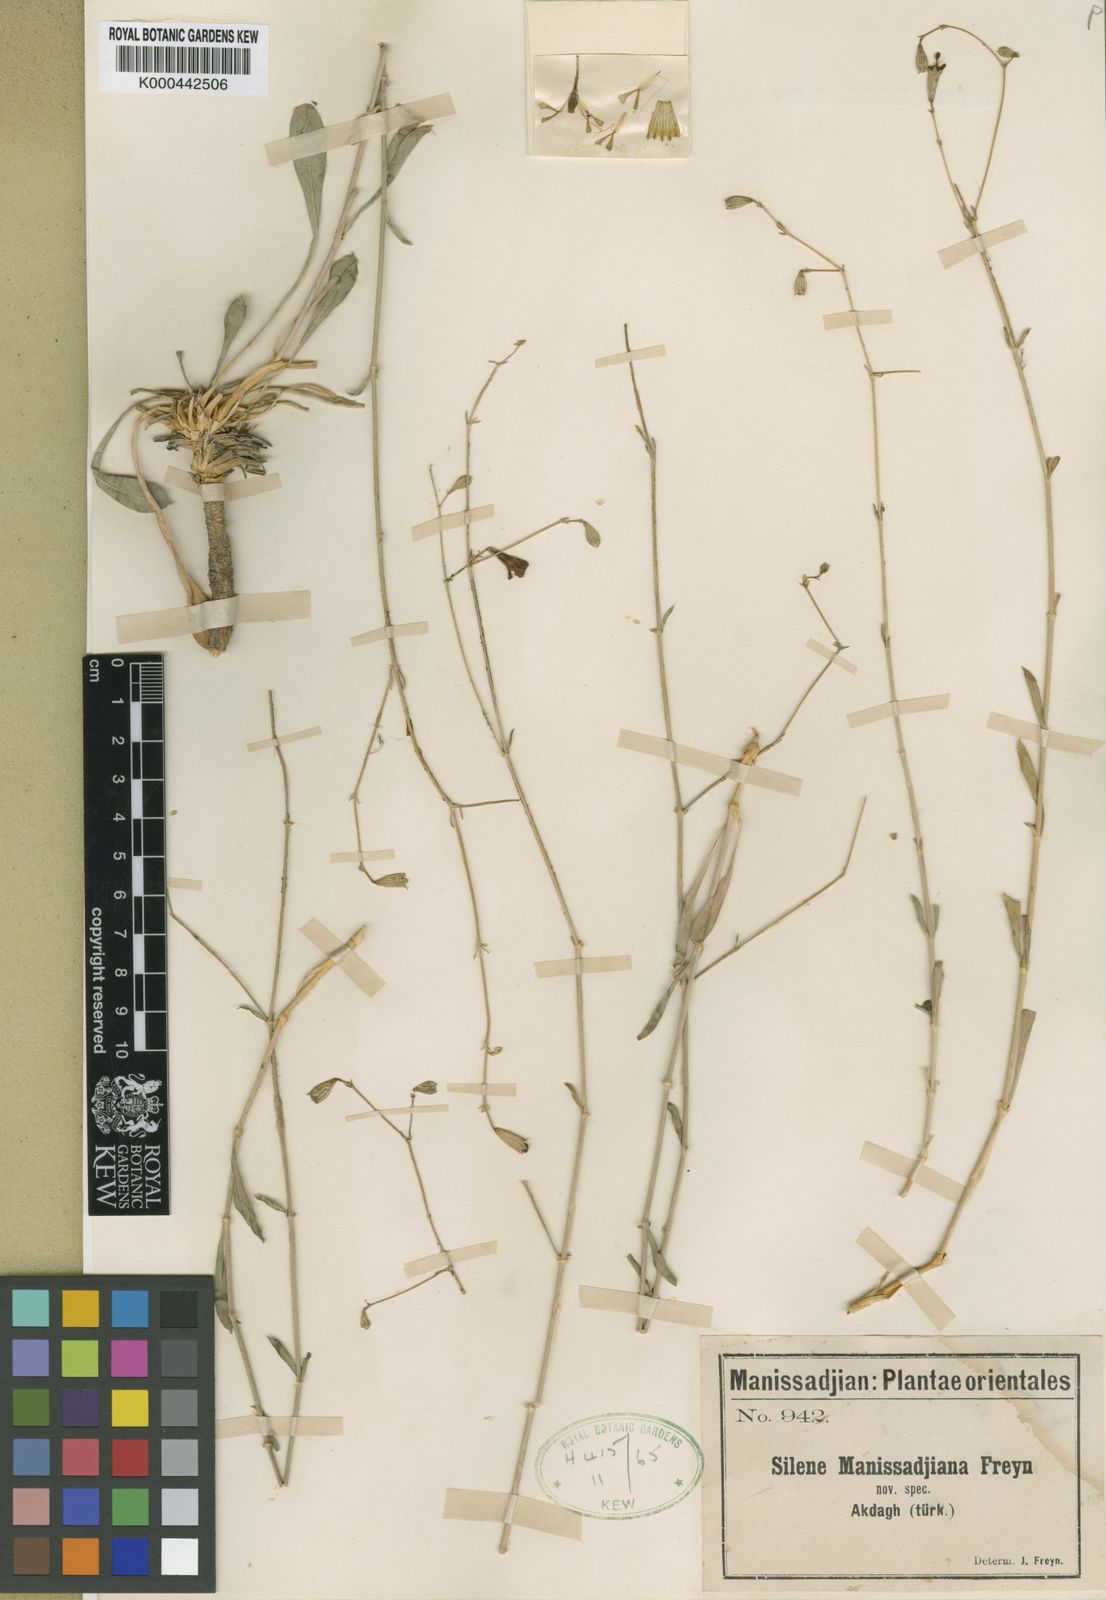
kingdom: Plantae
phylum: Tracheophyta
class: Magnoliopsida
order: Caryophyllales
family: Caryophyllaceae
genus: Silene
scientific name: Silene manissadjianii
